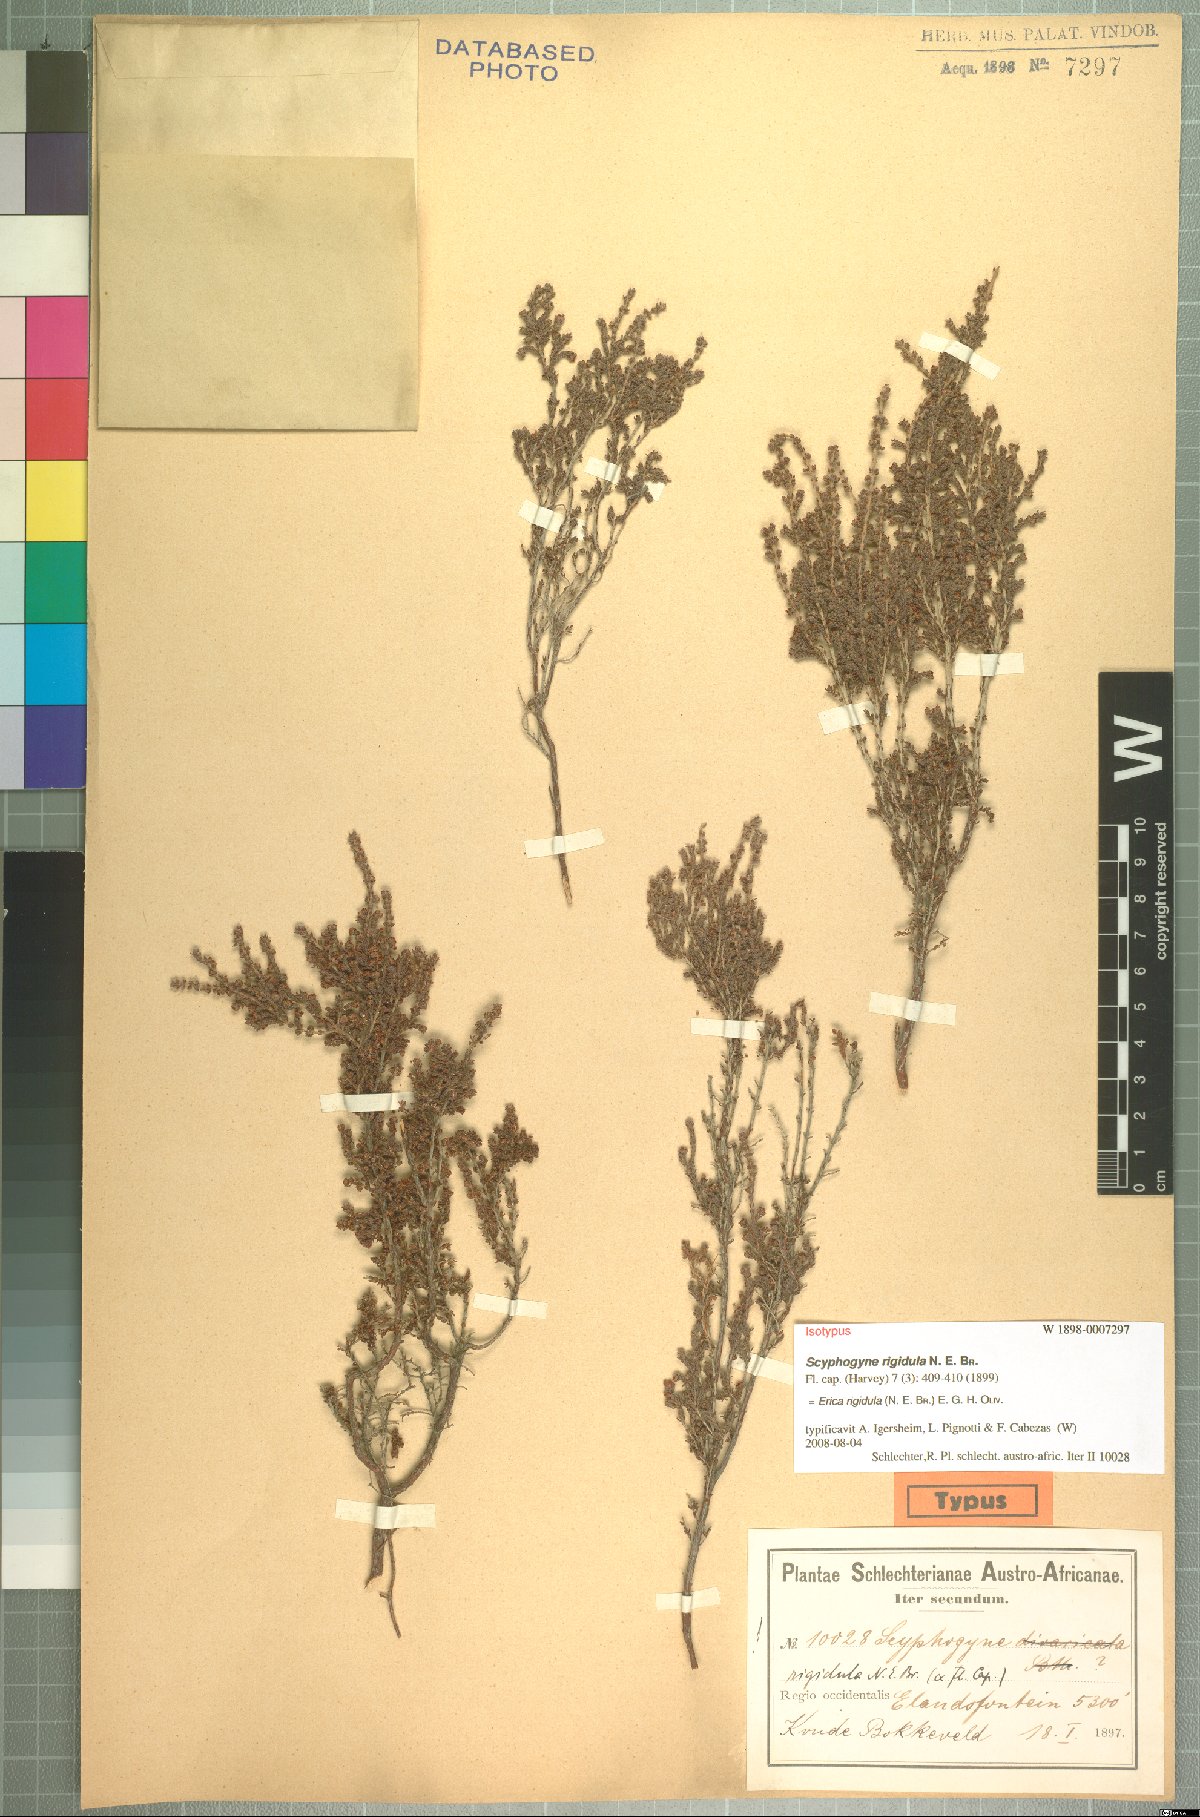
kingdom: Plantae
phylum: Tracheophyta
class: Magnoliopsida
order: Ericales
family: Ericaceae
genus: Erica
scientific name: Erica rigidula
